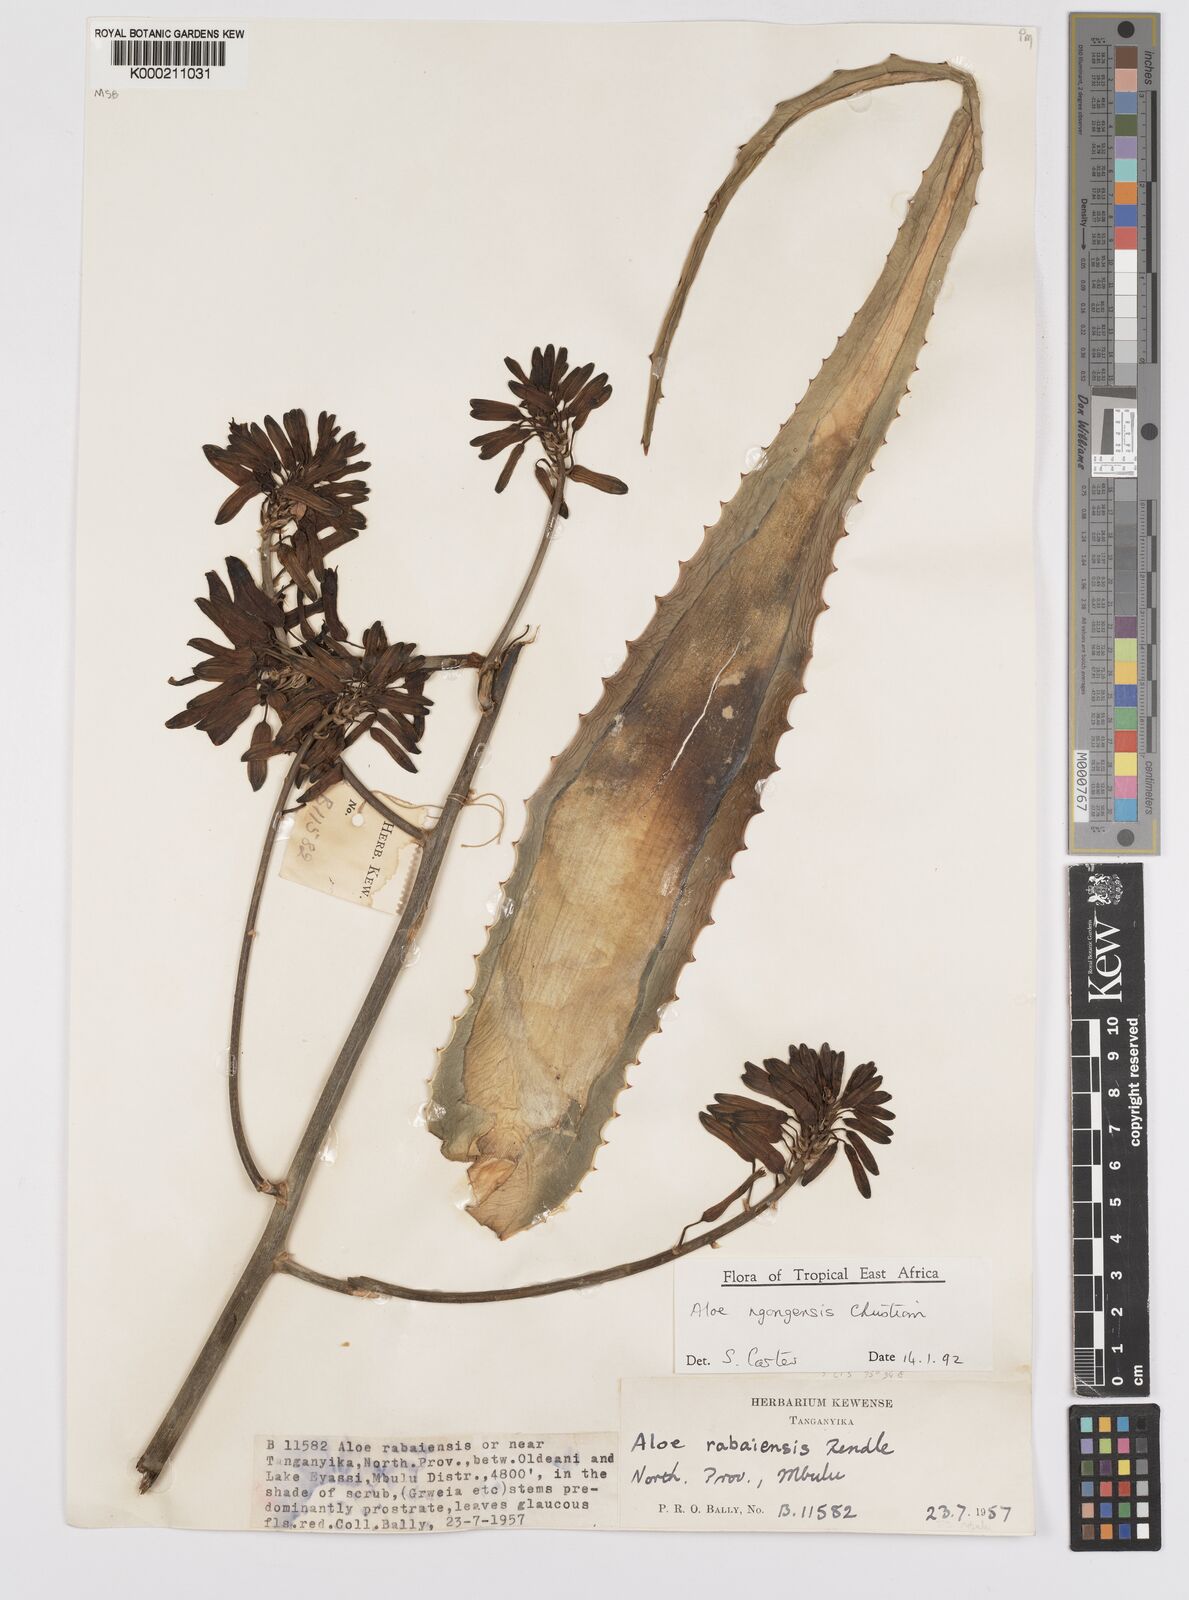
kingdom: Plantae
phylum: Tracheophyta
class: Liliopsida
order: Asparagales
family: Asphodelaceae
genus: Aloe
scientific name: Aloe ngongensis
